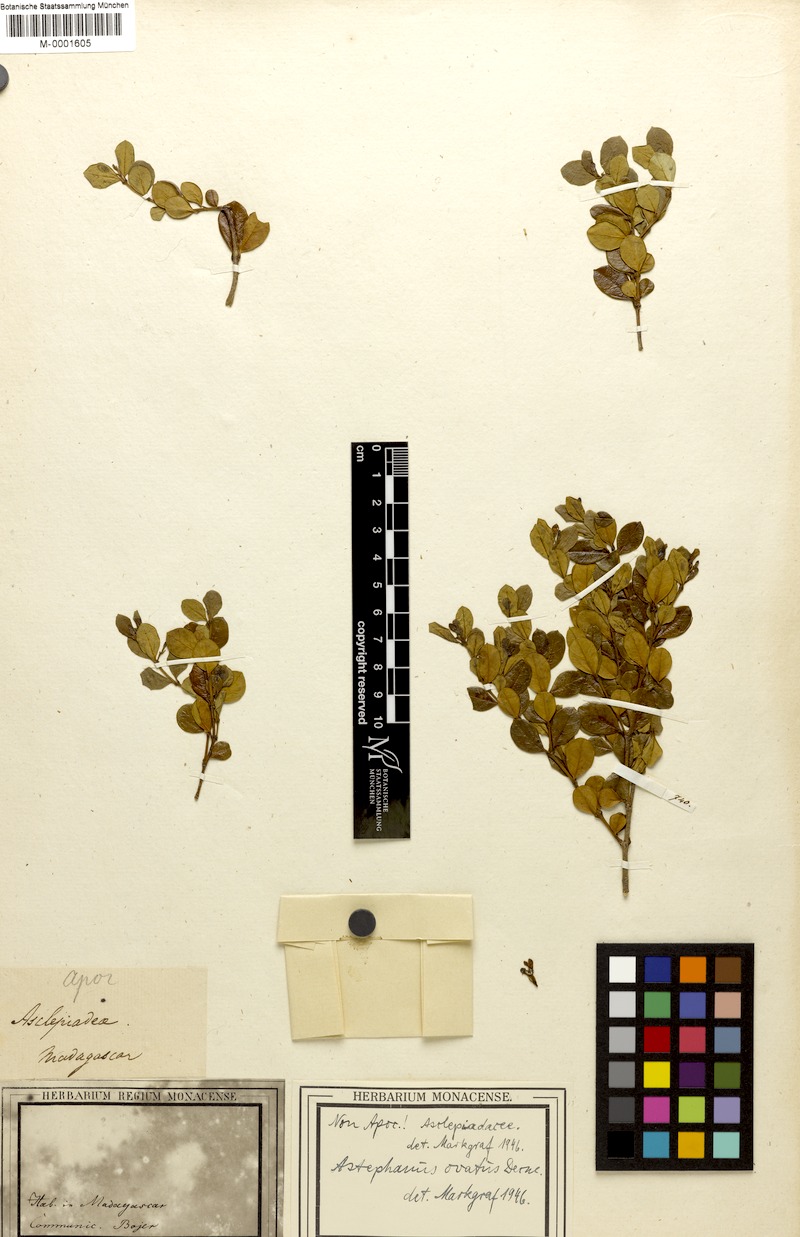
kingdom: Plantae
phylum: Tracheophyta
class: Magnoliopsida
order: Gentianales
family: Apocynaceae
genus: Vincetoxicum
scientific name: Vincetoxicum cernuum
